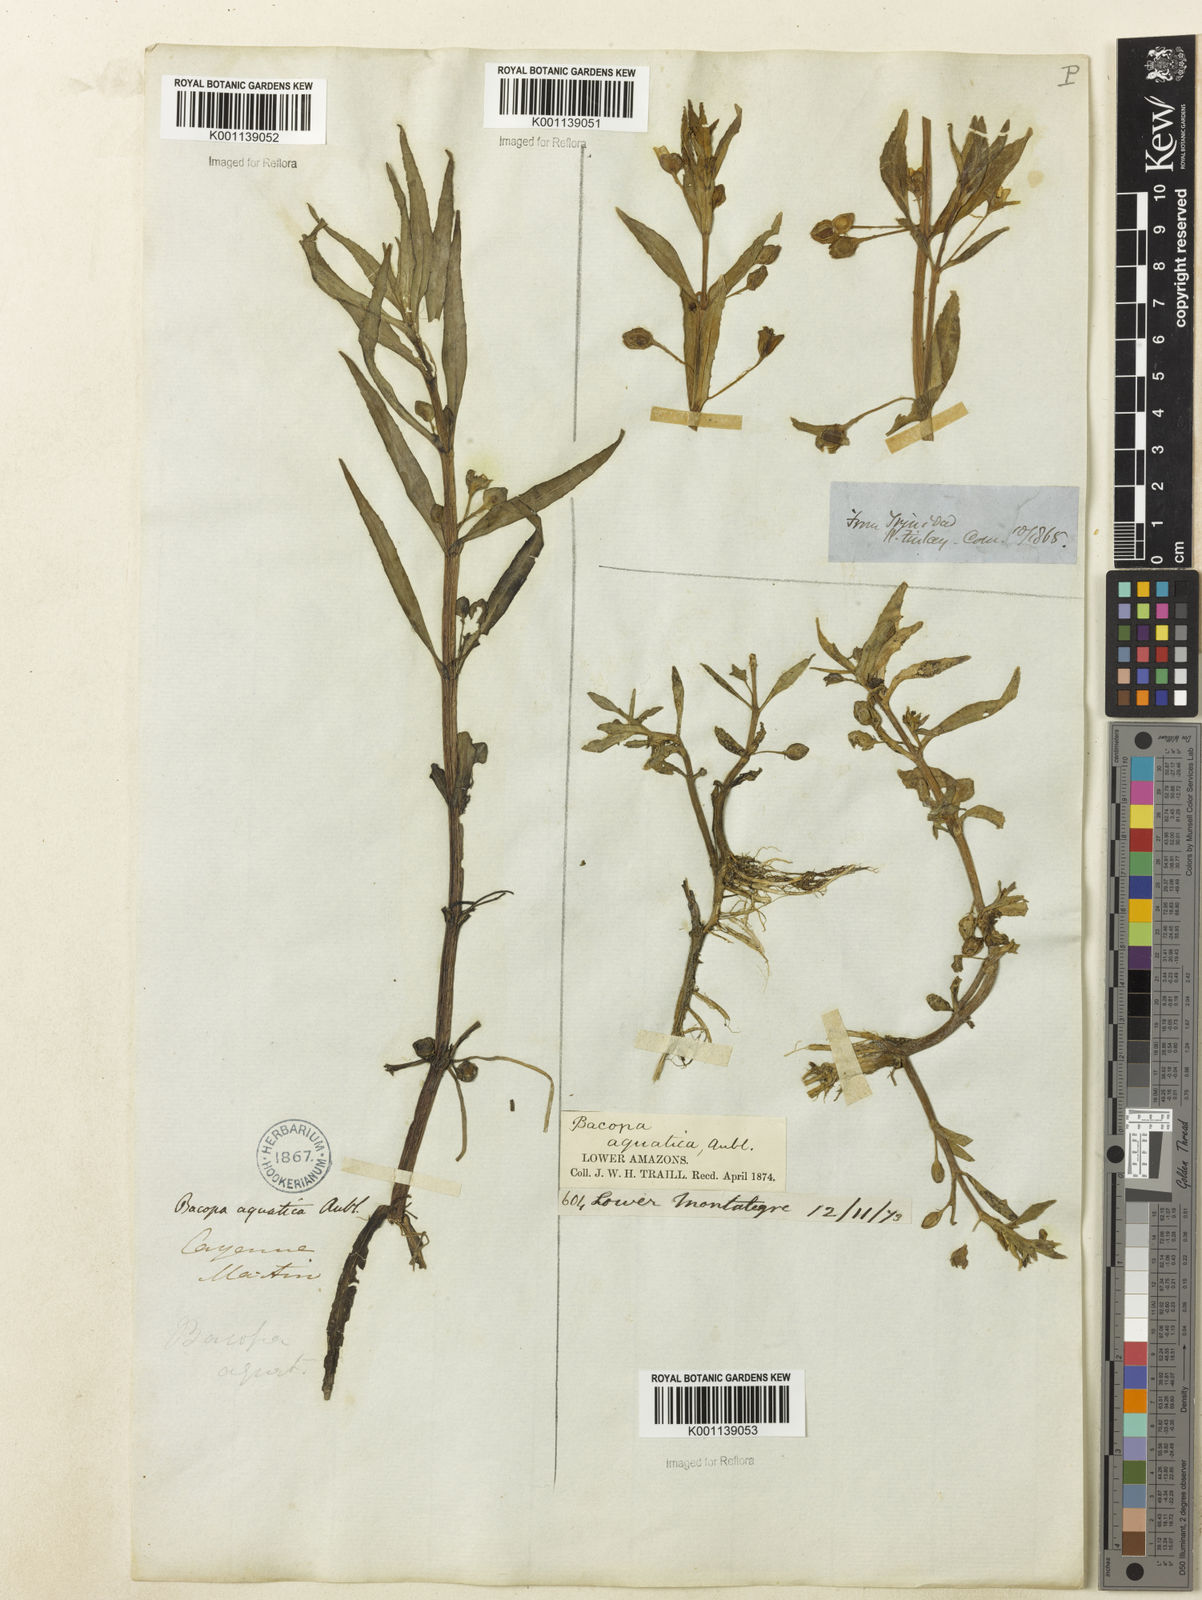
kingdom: Plantae
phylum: Tracheophyta
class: Magnoliopsida
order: Lamiales
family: Plantaginaceae
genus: Bacopa
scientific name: Bacopa aquatica
